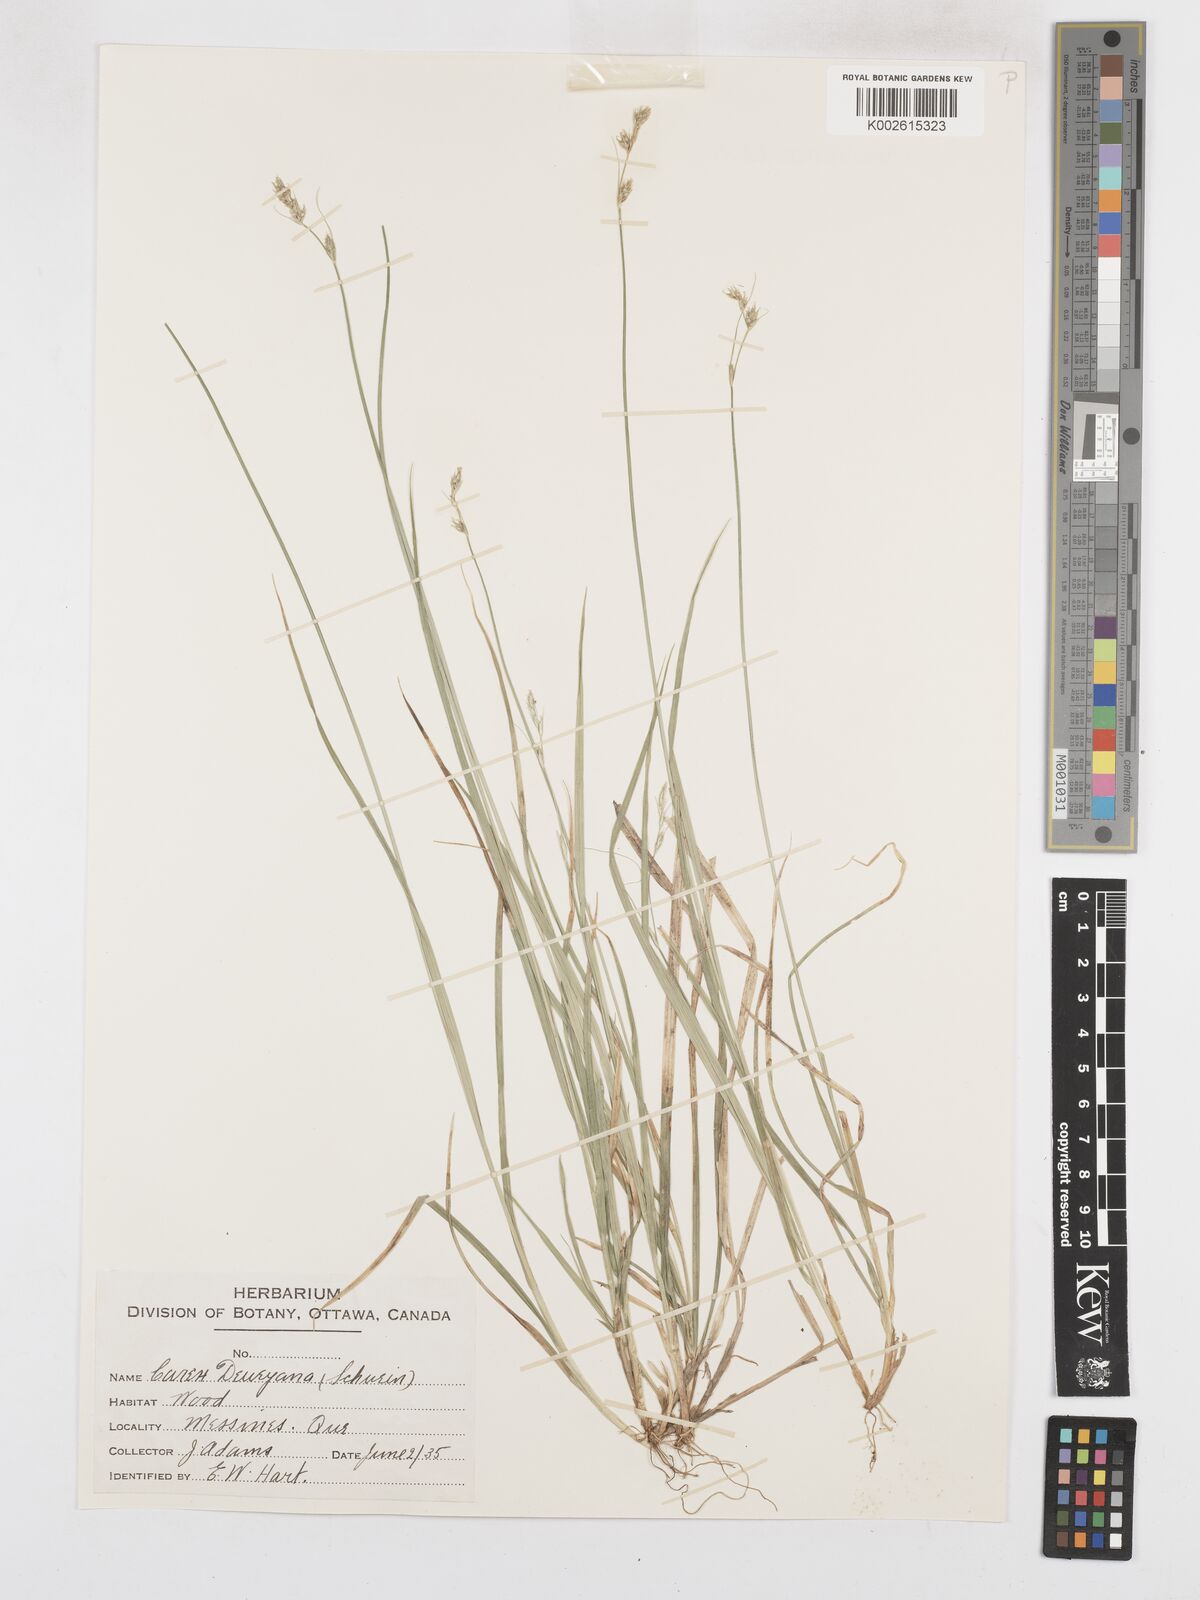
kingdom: Plantae
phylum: Tracheophyta
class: Liliopsida
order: Poales
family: Cyperaceae
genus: Carex
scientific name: Carex deweyana
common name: Dewey's sedge
